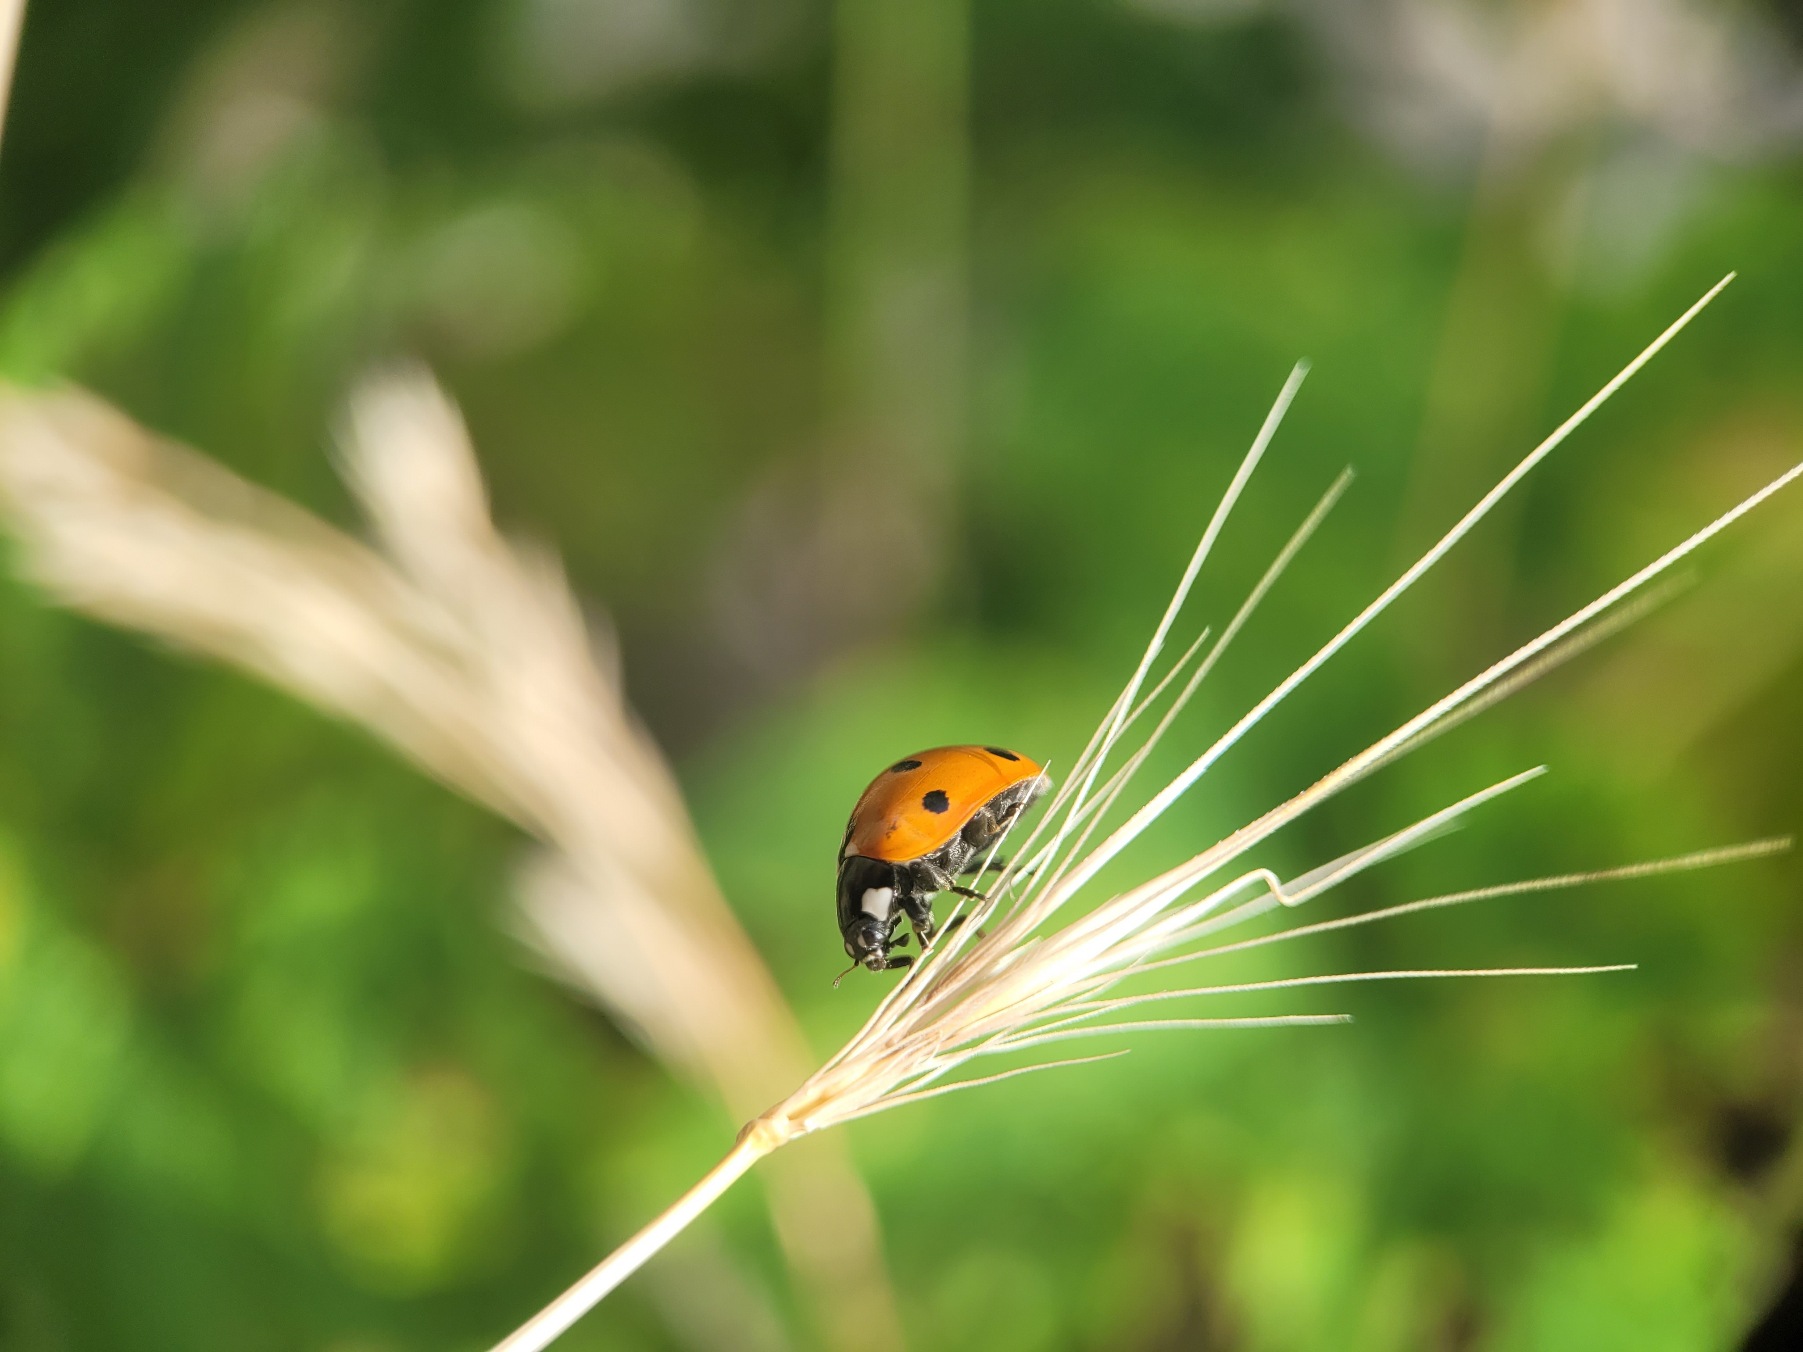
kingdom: Animalia
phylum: Arthropoda
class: Insecta
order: Coleoptera
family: Coccinellidae
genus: Coccinella
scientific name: Coccinella septempunctata
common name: Syvplettet mariehøne
